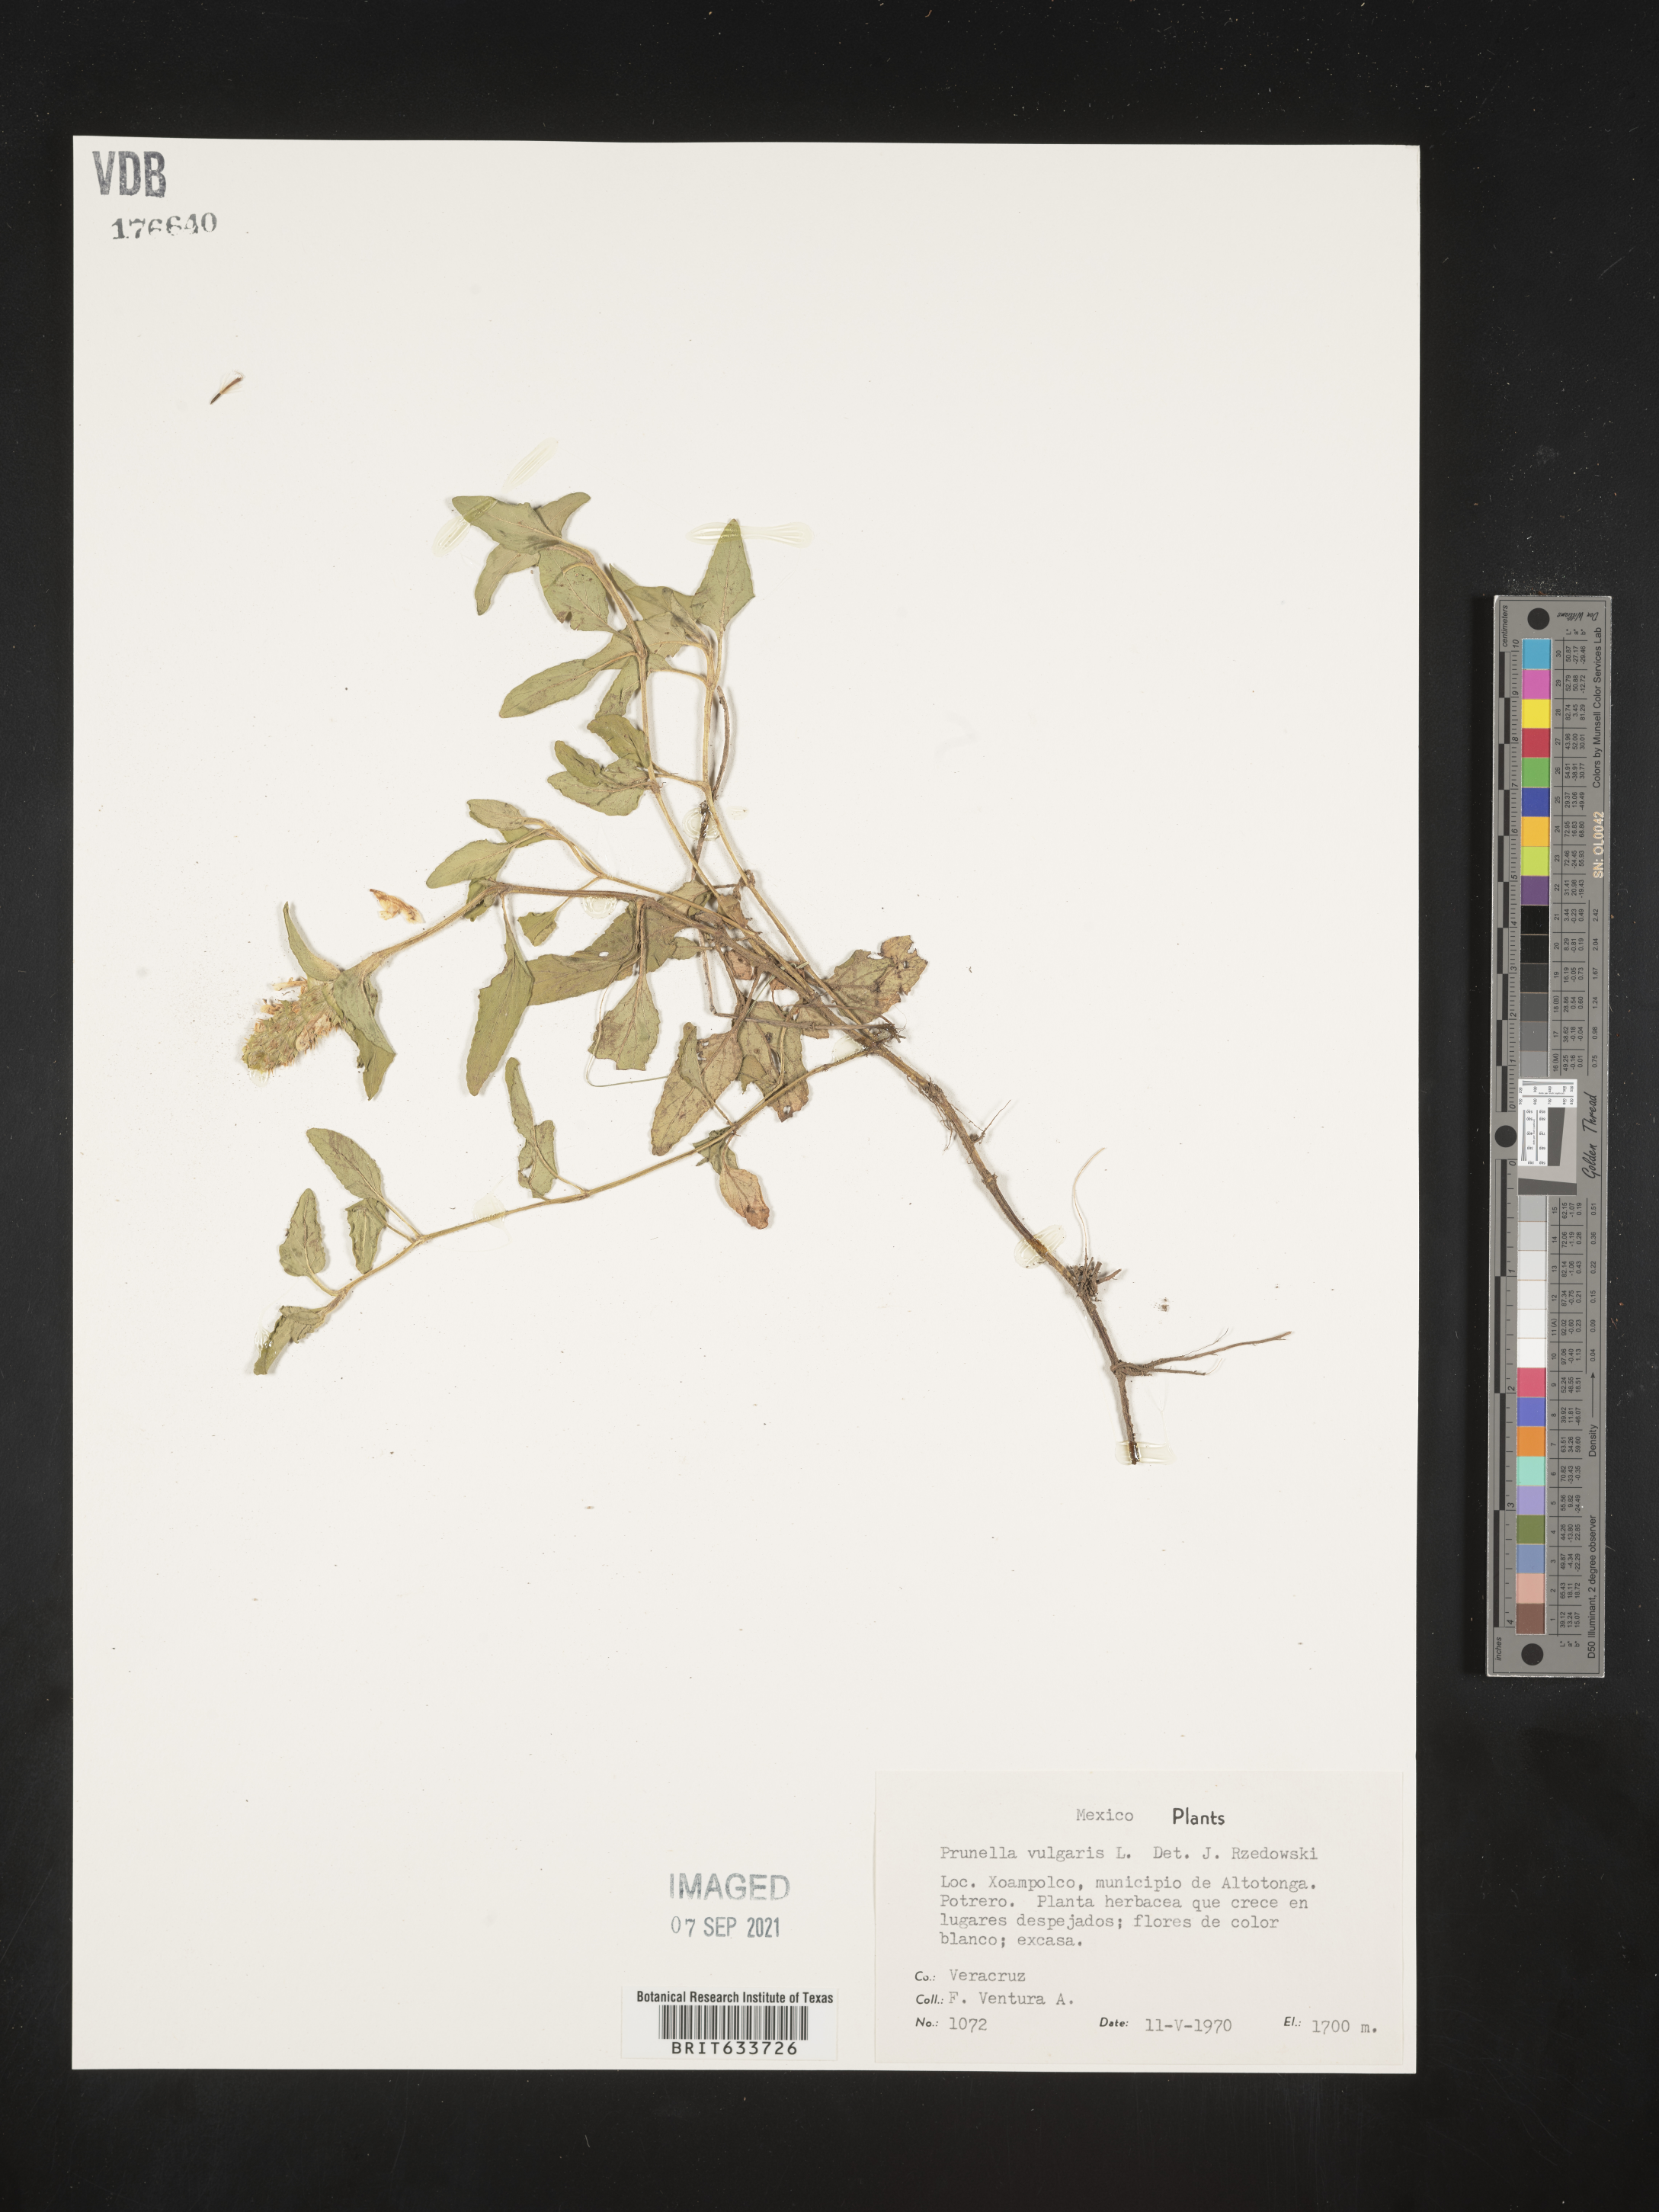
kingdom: Plantae
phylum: Tracheophyta
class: Magnoliopsida
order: Lamiales
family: Lamiaceae
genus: Prunella
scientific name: Prunella
